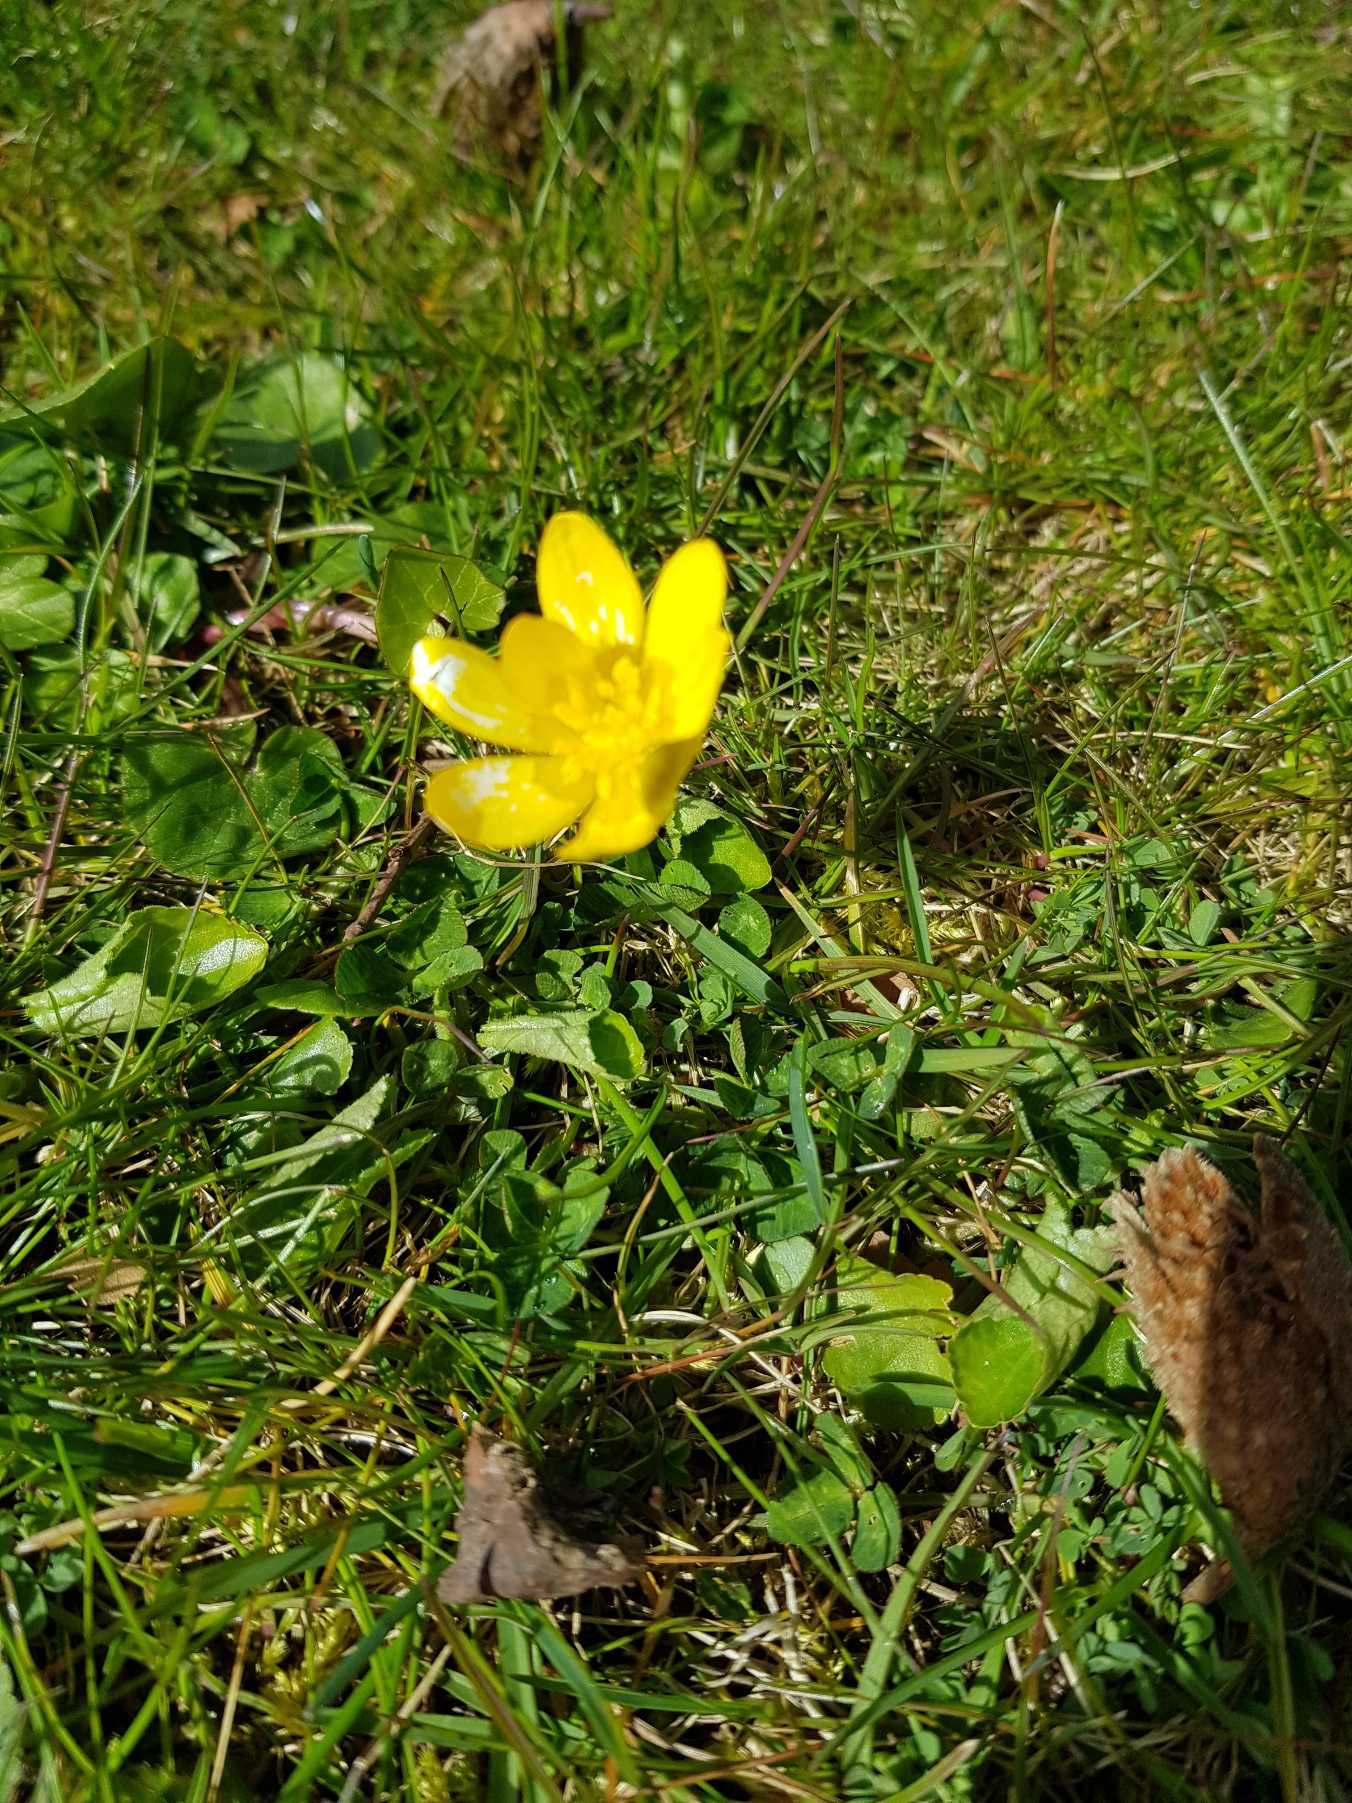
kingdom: Plantae
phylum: Tracheophyta
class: Magnoliopsida
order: Ranunculales
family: Ranunculaceae
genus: Ficaria
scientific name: Ficaria verna
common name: Vorterod
